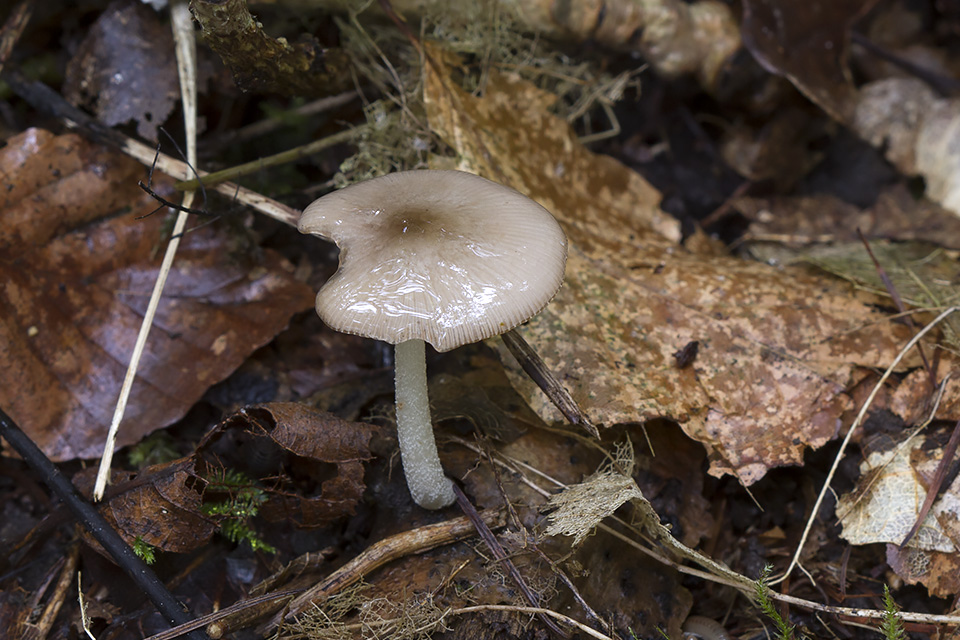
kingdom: Fungi
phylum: Basidiomycota
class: Agaricomycetes
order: Agaricales
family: Bolbitiaceae
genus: Bolbitius
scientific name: Bolbitius reticulatus
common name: Netted fieldcap
